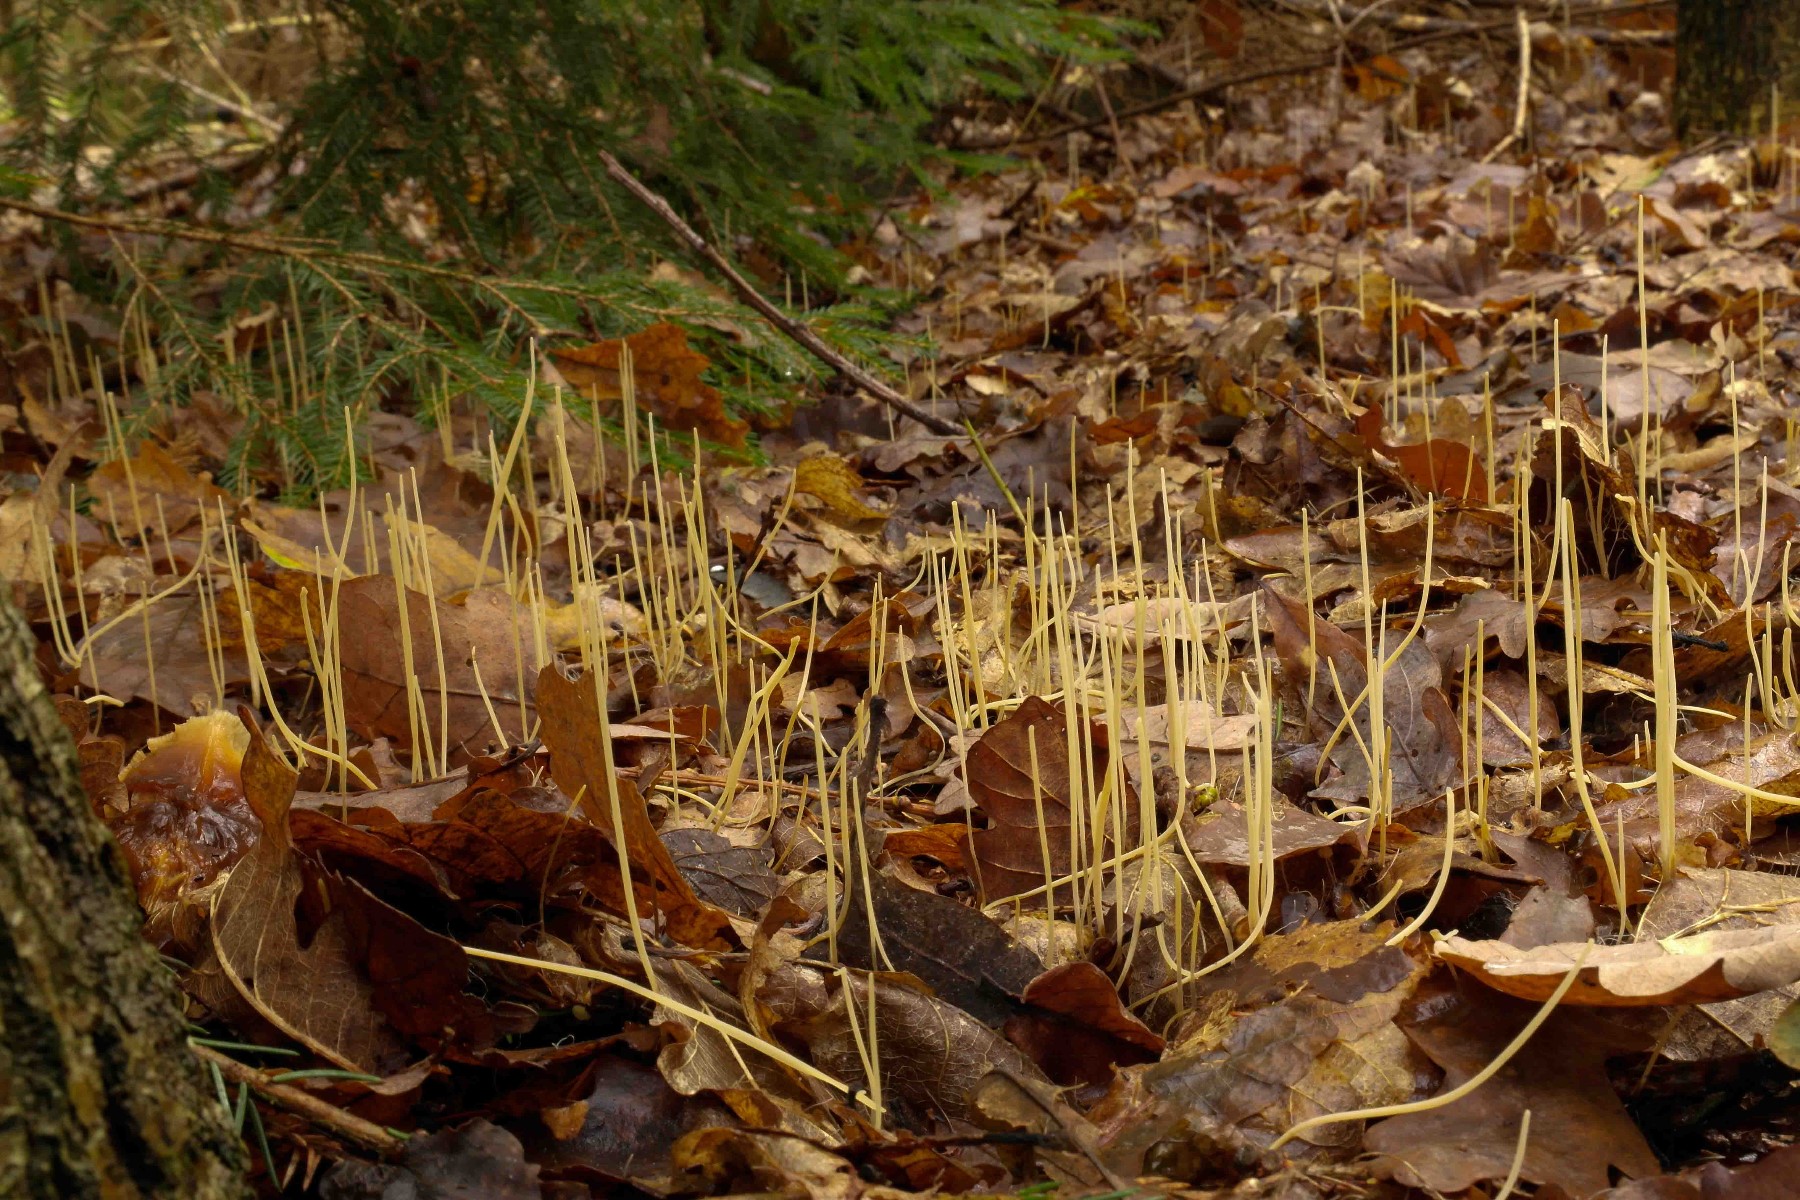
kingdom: Fungi
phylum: Basidiomycota
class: Agaricomycetes
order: Agaricales
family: Typhulaceae
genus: Typhula
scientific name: Typhula juncea
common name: trådagtig rørkølle
